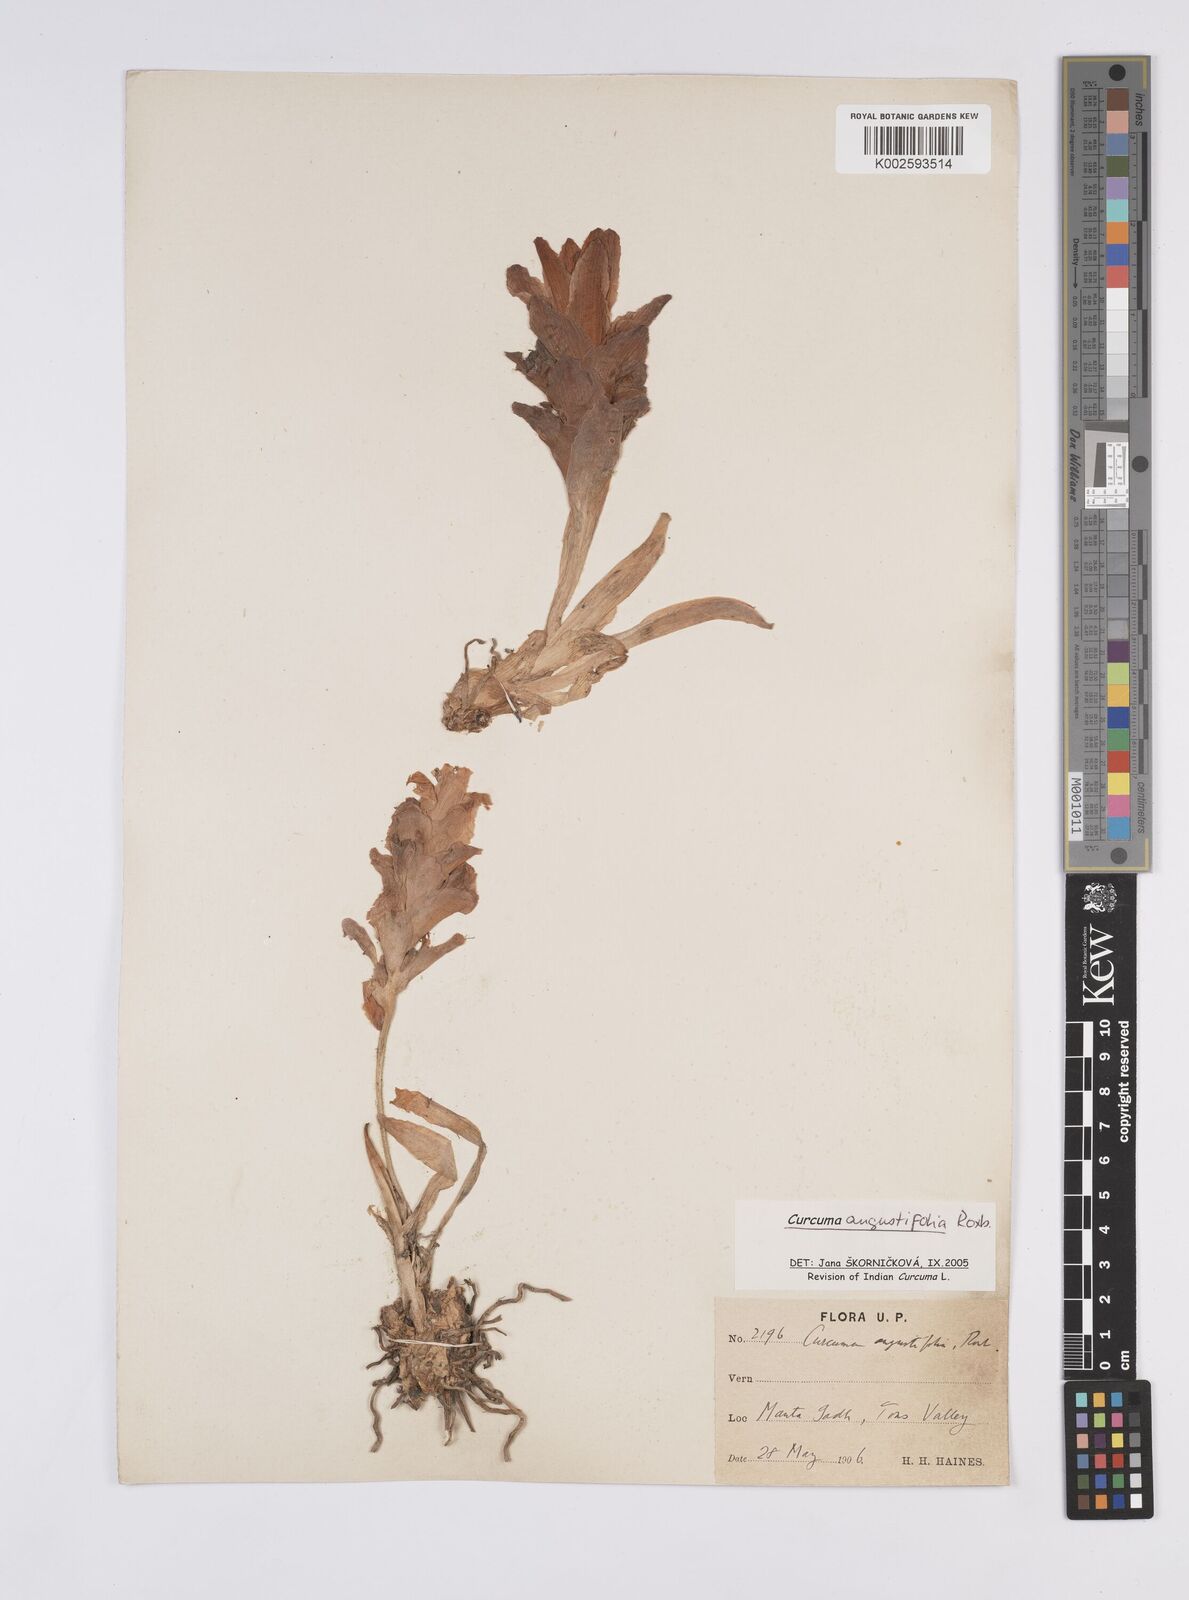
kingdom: Plantae
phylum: Tracheophyta
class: Liliopsida
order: Zingiberales
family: Zingiberaceae
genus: Curcuma
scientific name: Curcuma angustifolia
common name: East indian arrowroot
